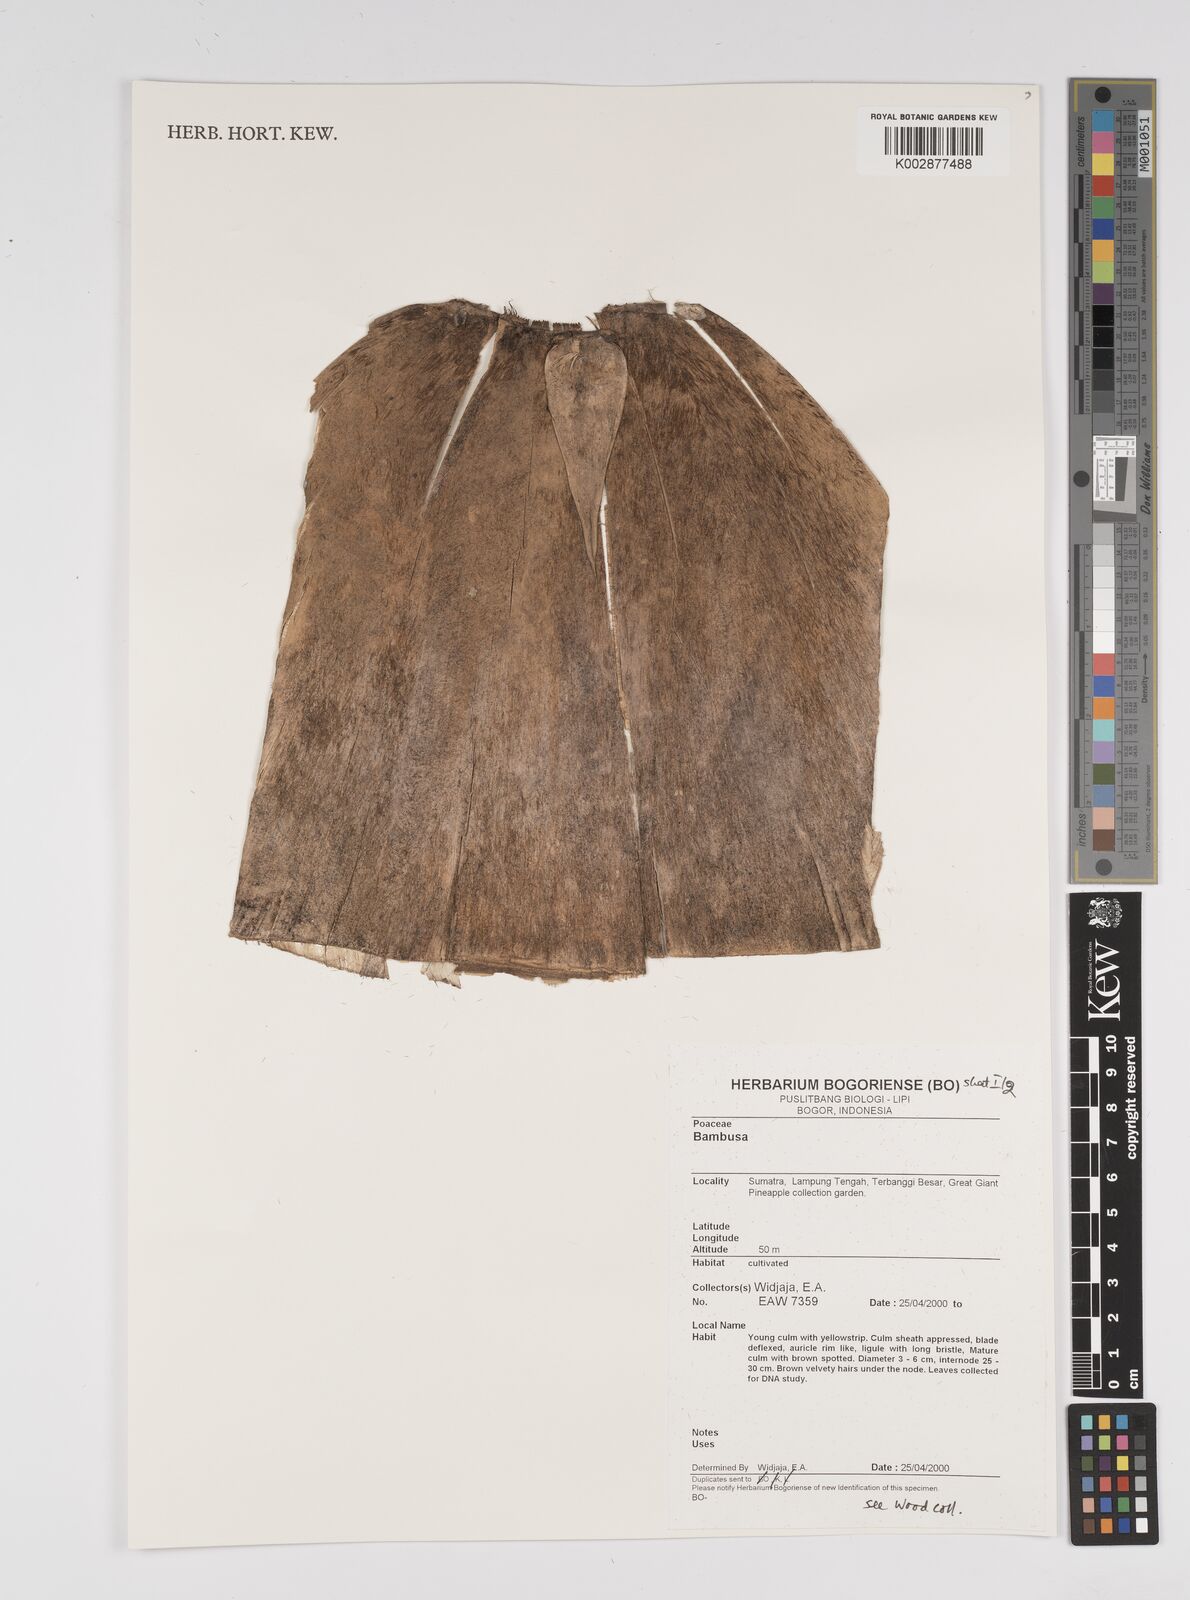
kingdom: Plantae
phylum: Tracheophyta
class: Liliopsida
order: Poales
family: Poaceae
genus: Bambusa
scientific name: Bambusa
